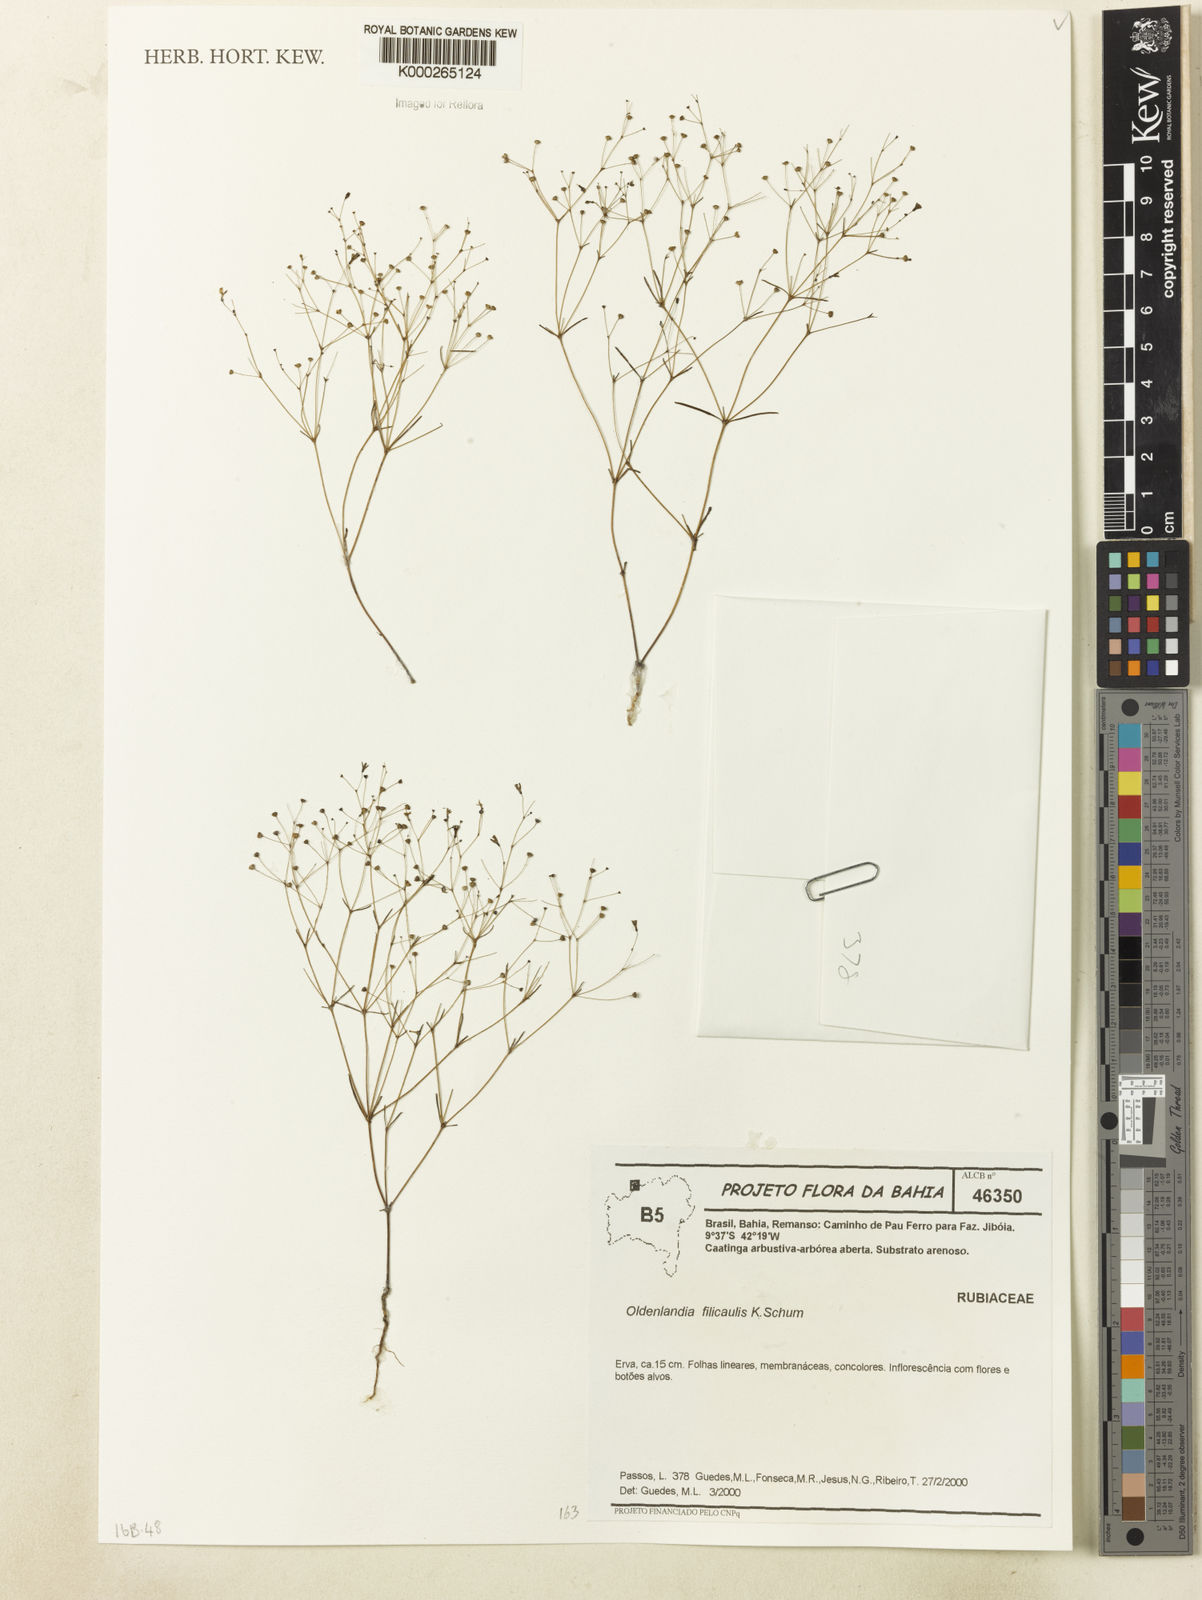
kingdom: Plantae
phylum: Tracheophyta
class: Magnoliopsida
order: Gentianales
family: Rubiaceae
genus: Oldenlandia
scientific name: Oldenlandia filicaulis
